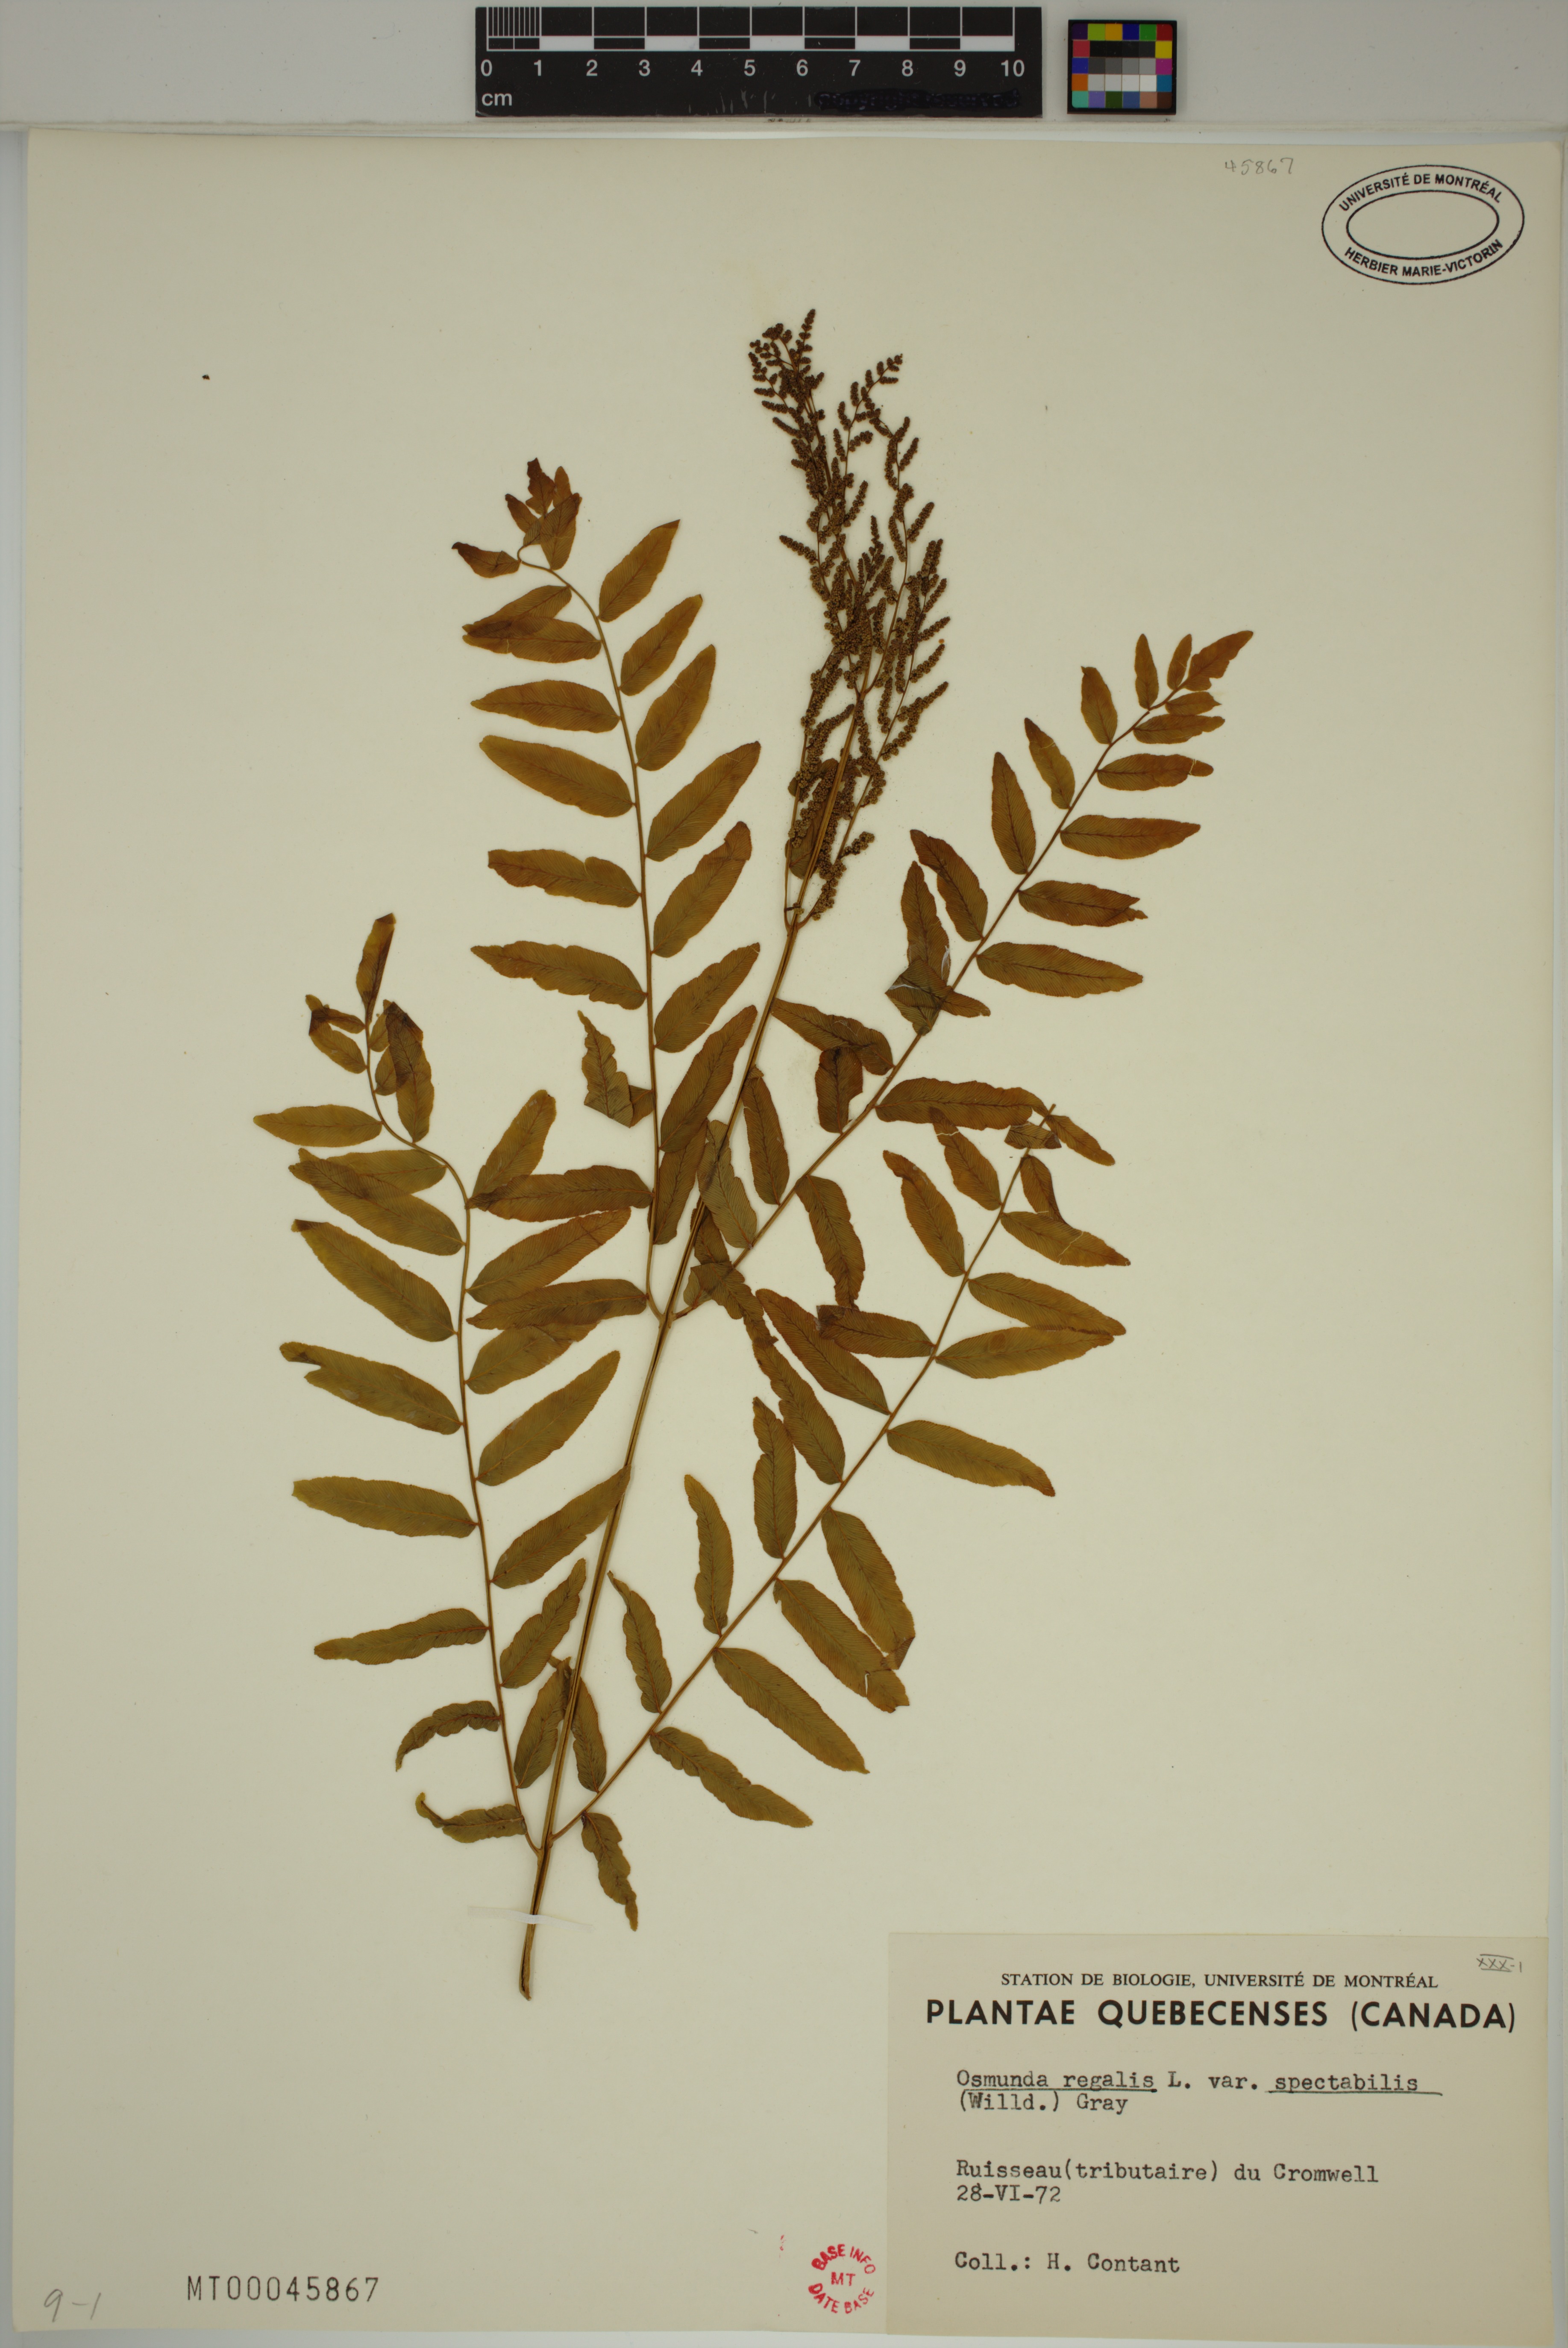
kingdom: Plantae
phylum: Tracheophyta
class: Polypodiopsida
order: Osmundales
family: Osmundaceae
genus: Osmunda
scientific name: Osmunda spectabilis
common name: American royal fern
